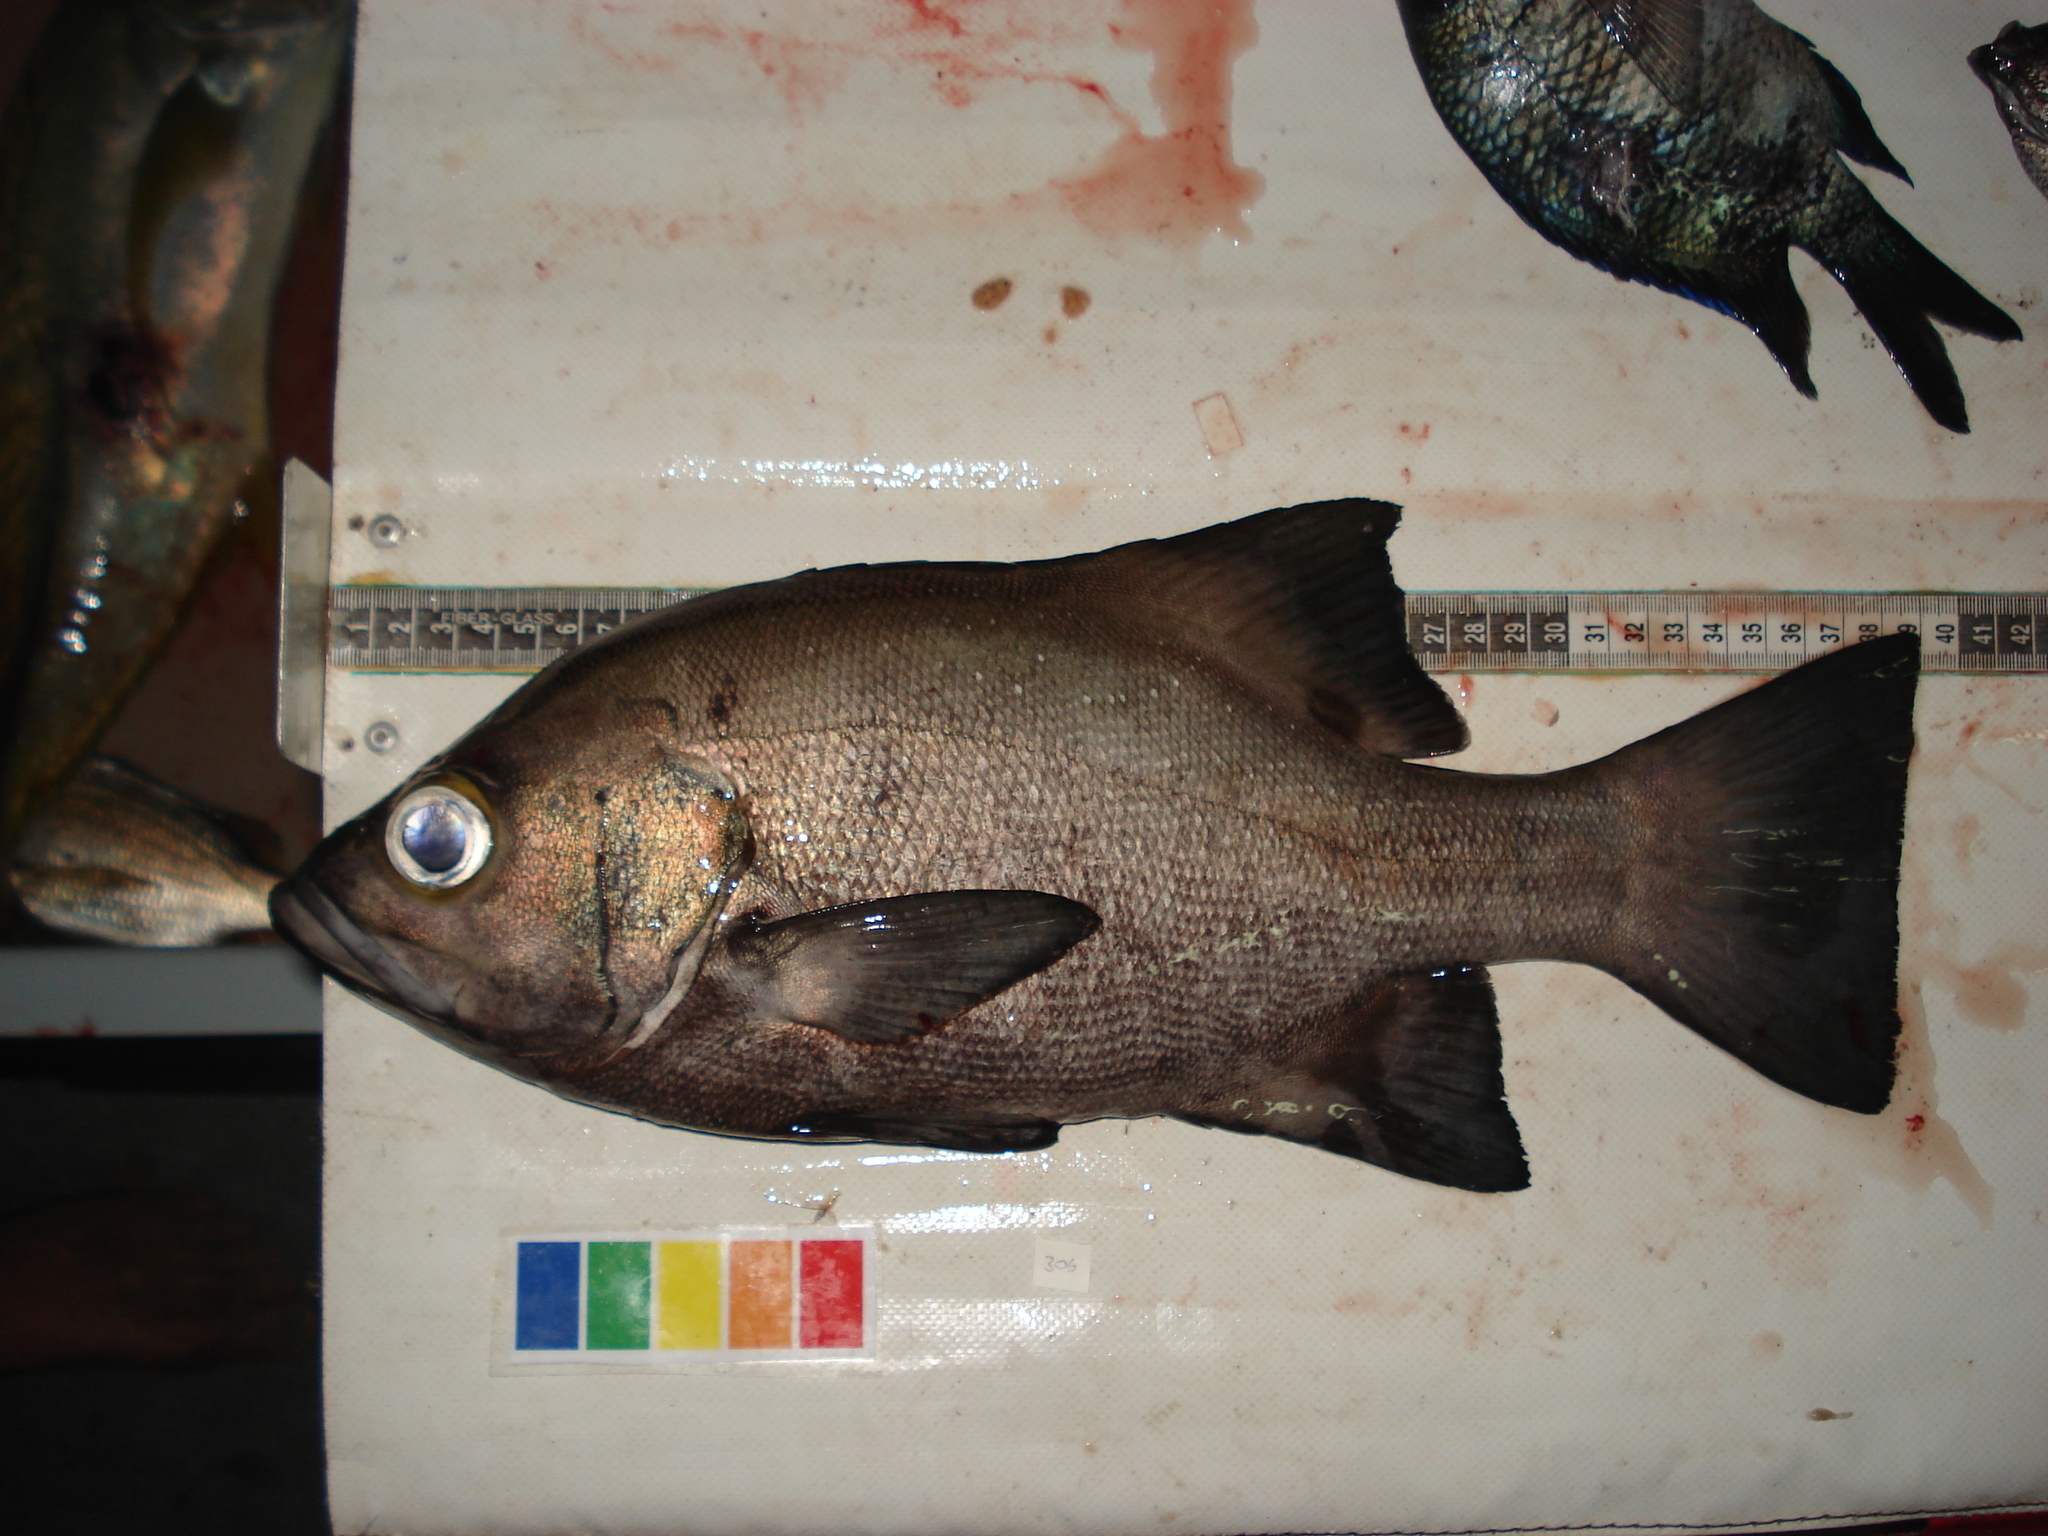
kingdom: Animalia
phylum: Chordata
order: Perciformes
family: Dinopercidae
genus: Dinoperca
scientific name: Dinoperca petersi
